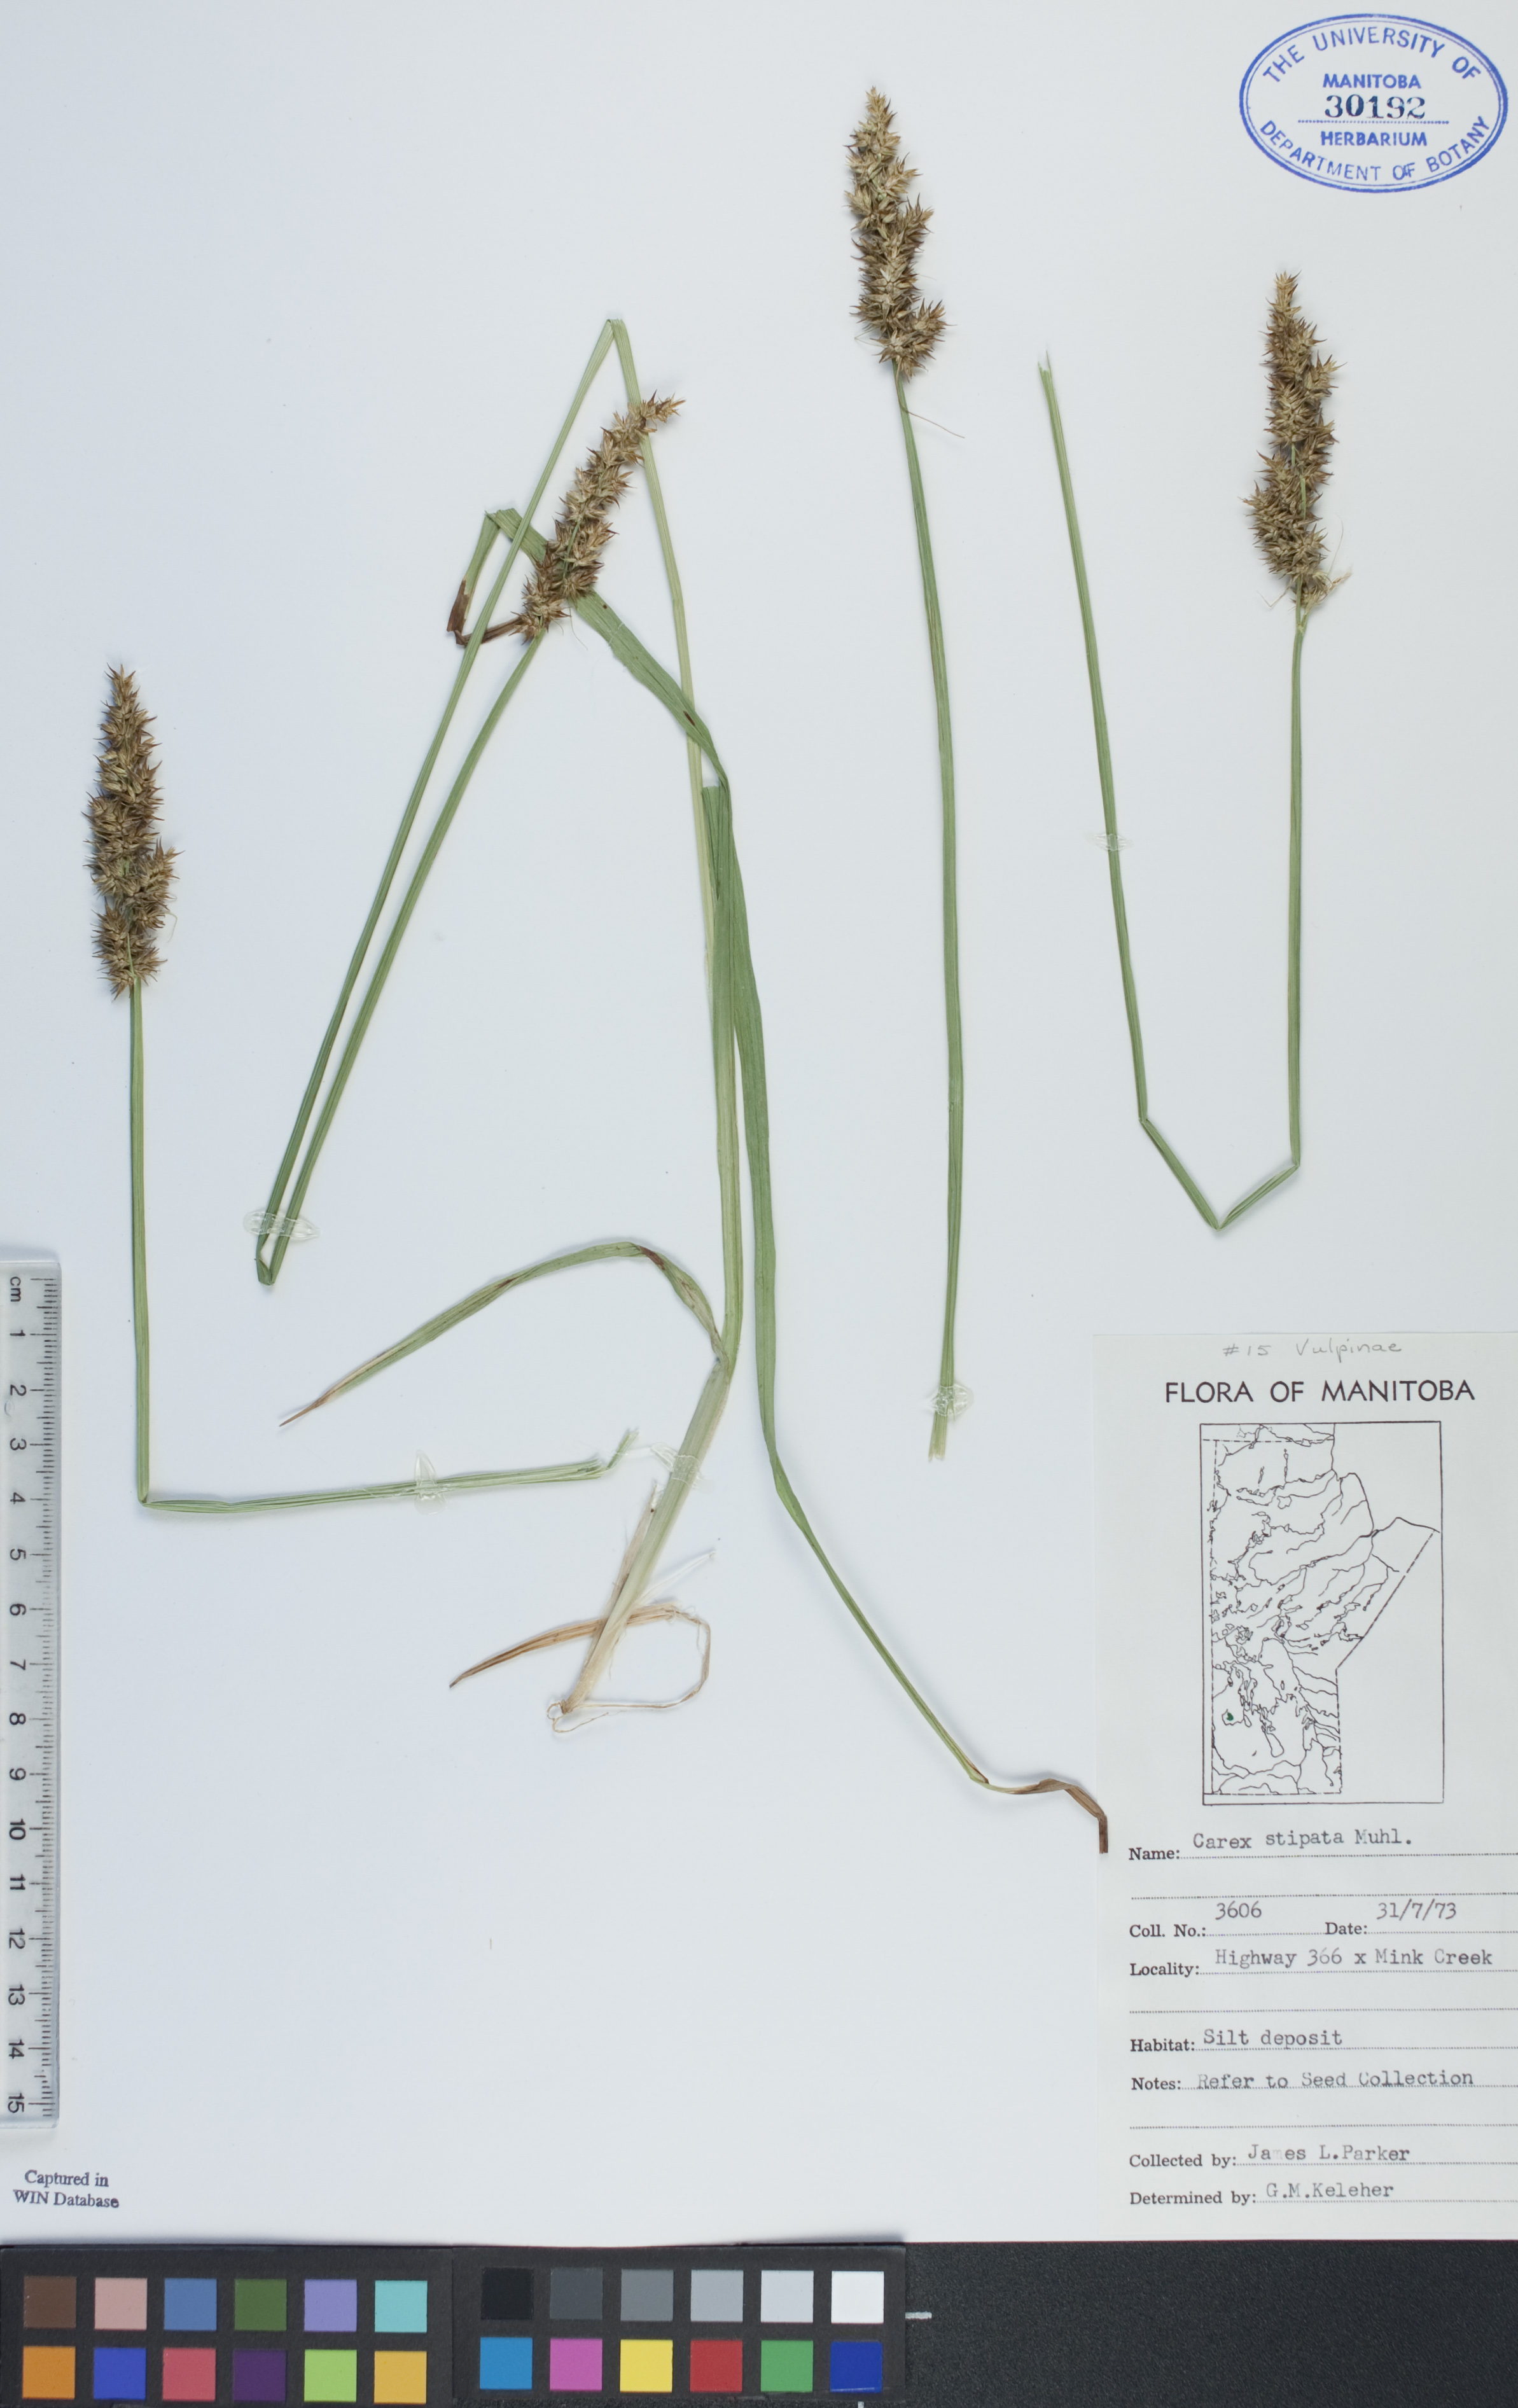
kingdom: Plantae
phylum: Tracheophyta
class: Liliopsida
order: Poales
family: Cyperaceae
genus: Carex
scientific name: Carex stipata
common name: Awl-fruited sedge
